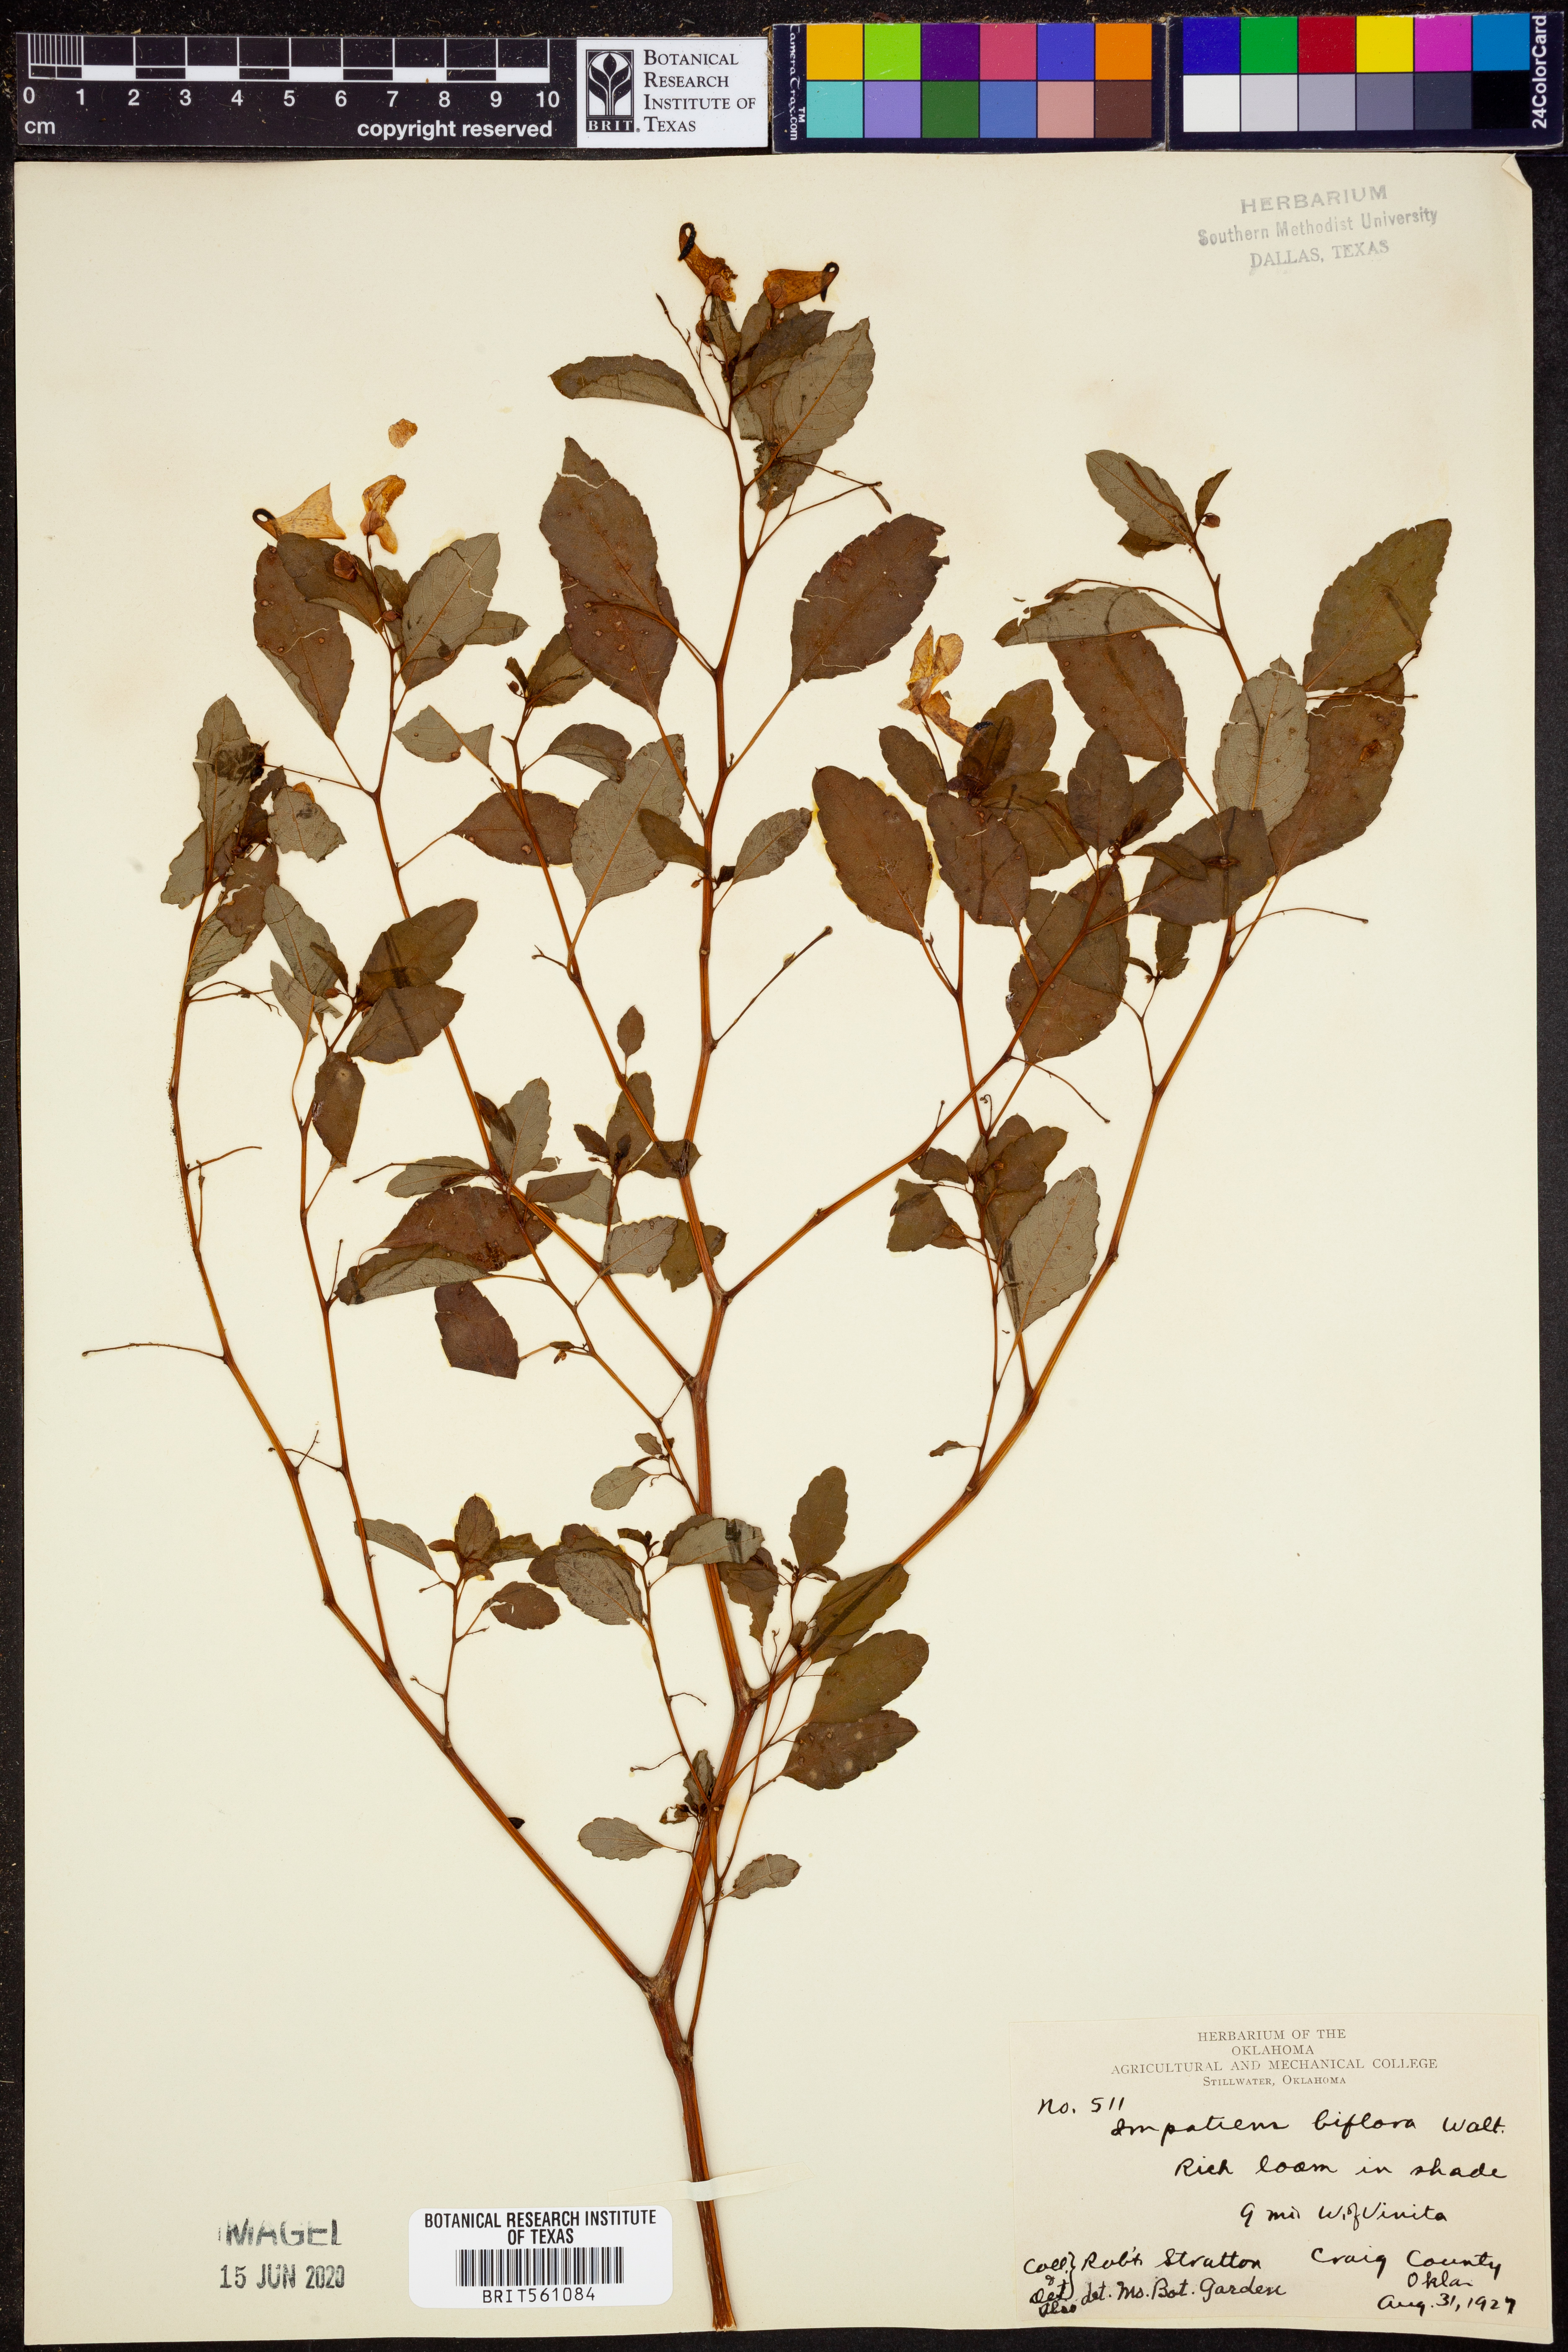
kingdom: Plantae
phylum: Tracheophyta
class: Magnoliopsida
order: Ericales
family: Balsaminaceae
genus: Impatiens
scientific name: Impatiens capensis
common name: Orange balsam
